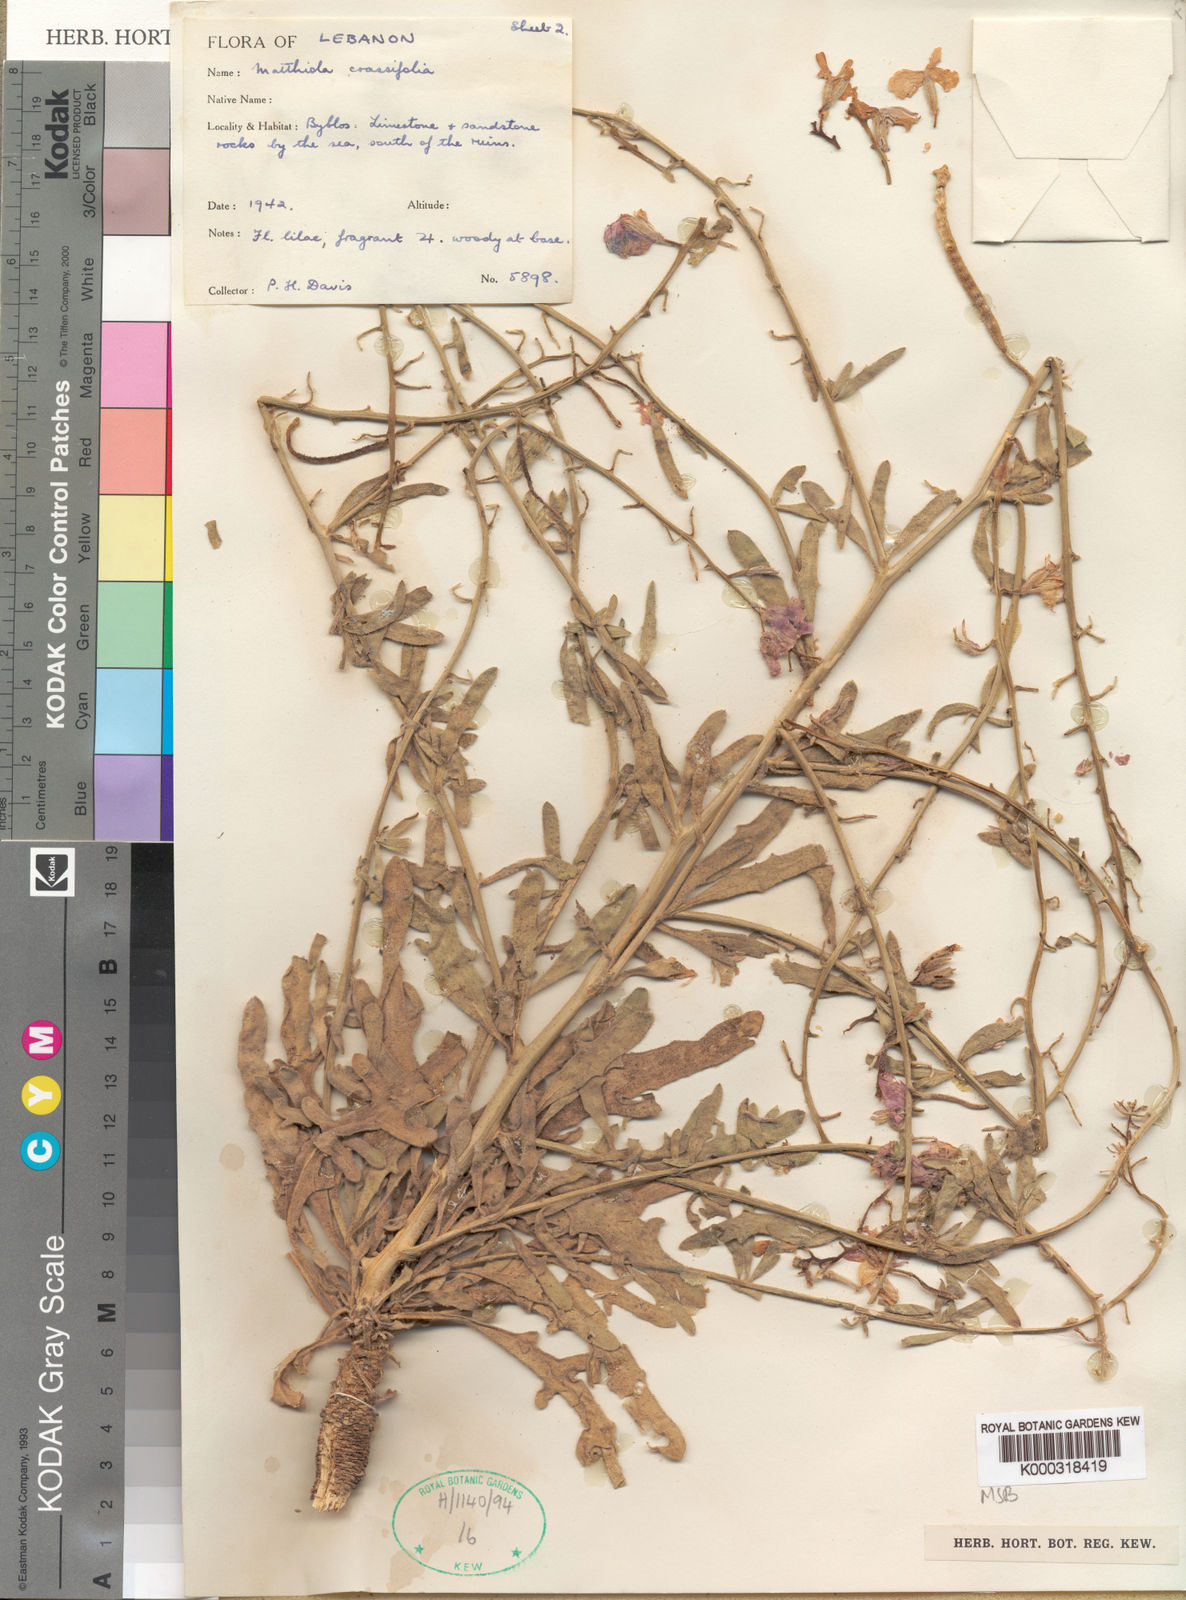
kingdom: Plantae
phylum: Tracheophyta
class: Magnoliopsida
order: Brassicales
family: Brassicaceae
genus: Matthiola
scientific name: Matthiola crassifolia
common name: Thick-leaved stock of beirut
